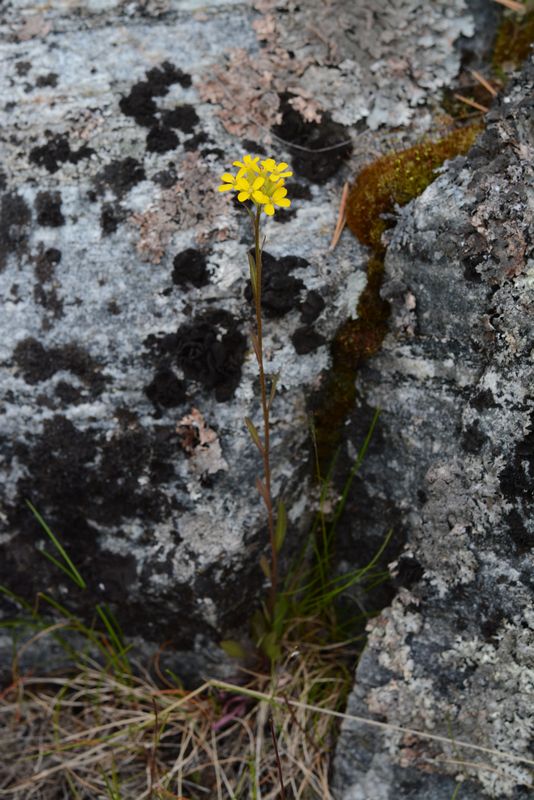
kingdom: Plantae
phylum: Tracheophyta
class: Magnoliopsida
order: Brassicales
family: Brassicaceae
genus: Erysimum
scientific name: Erysimum hieraciifolium
